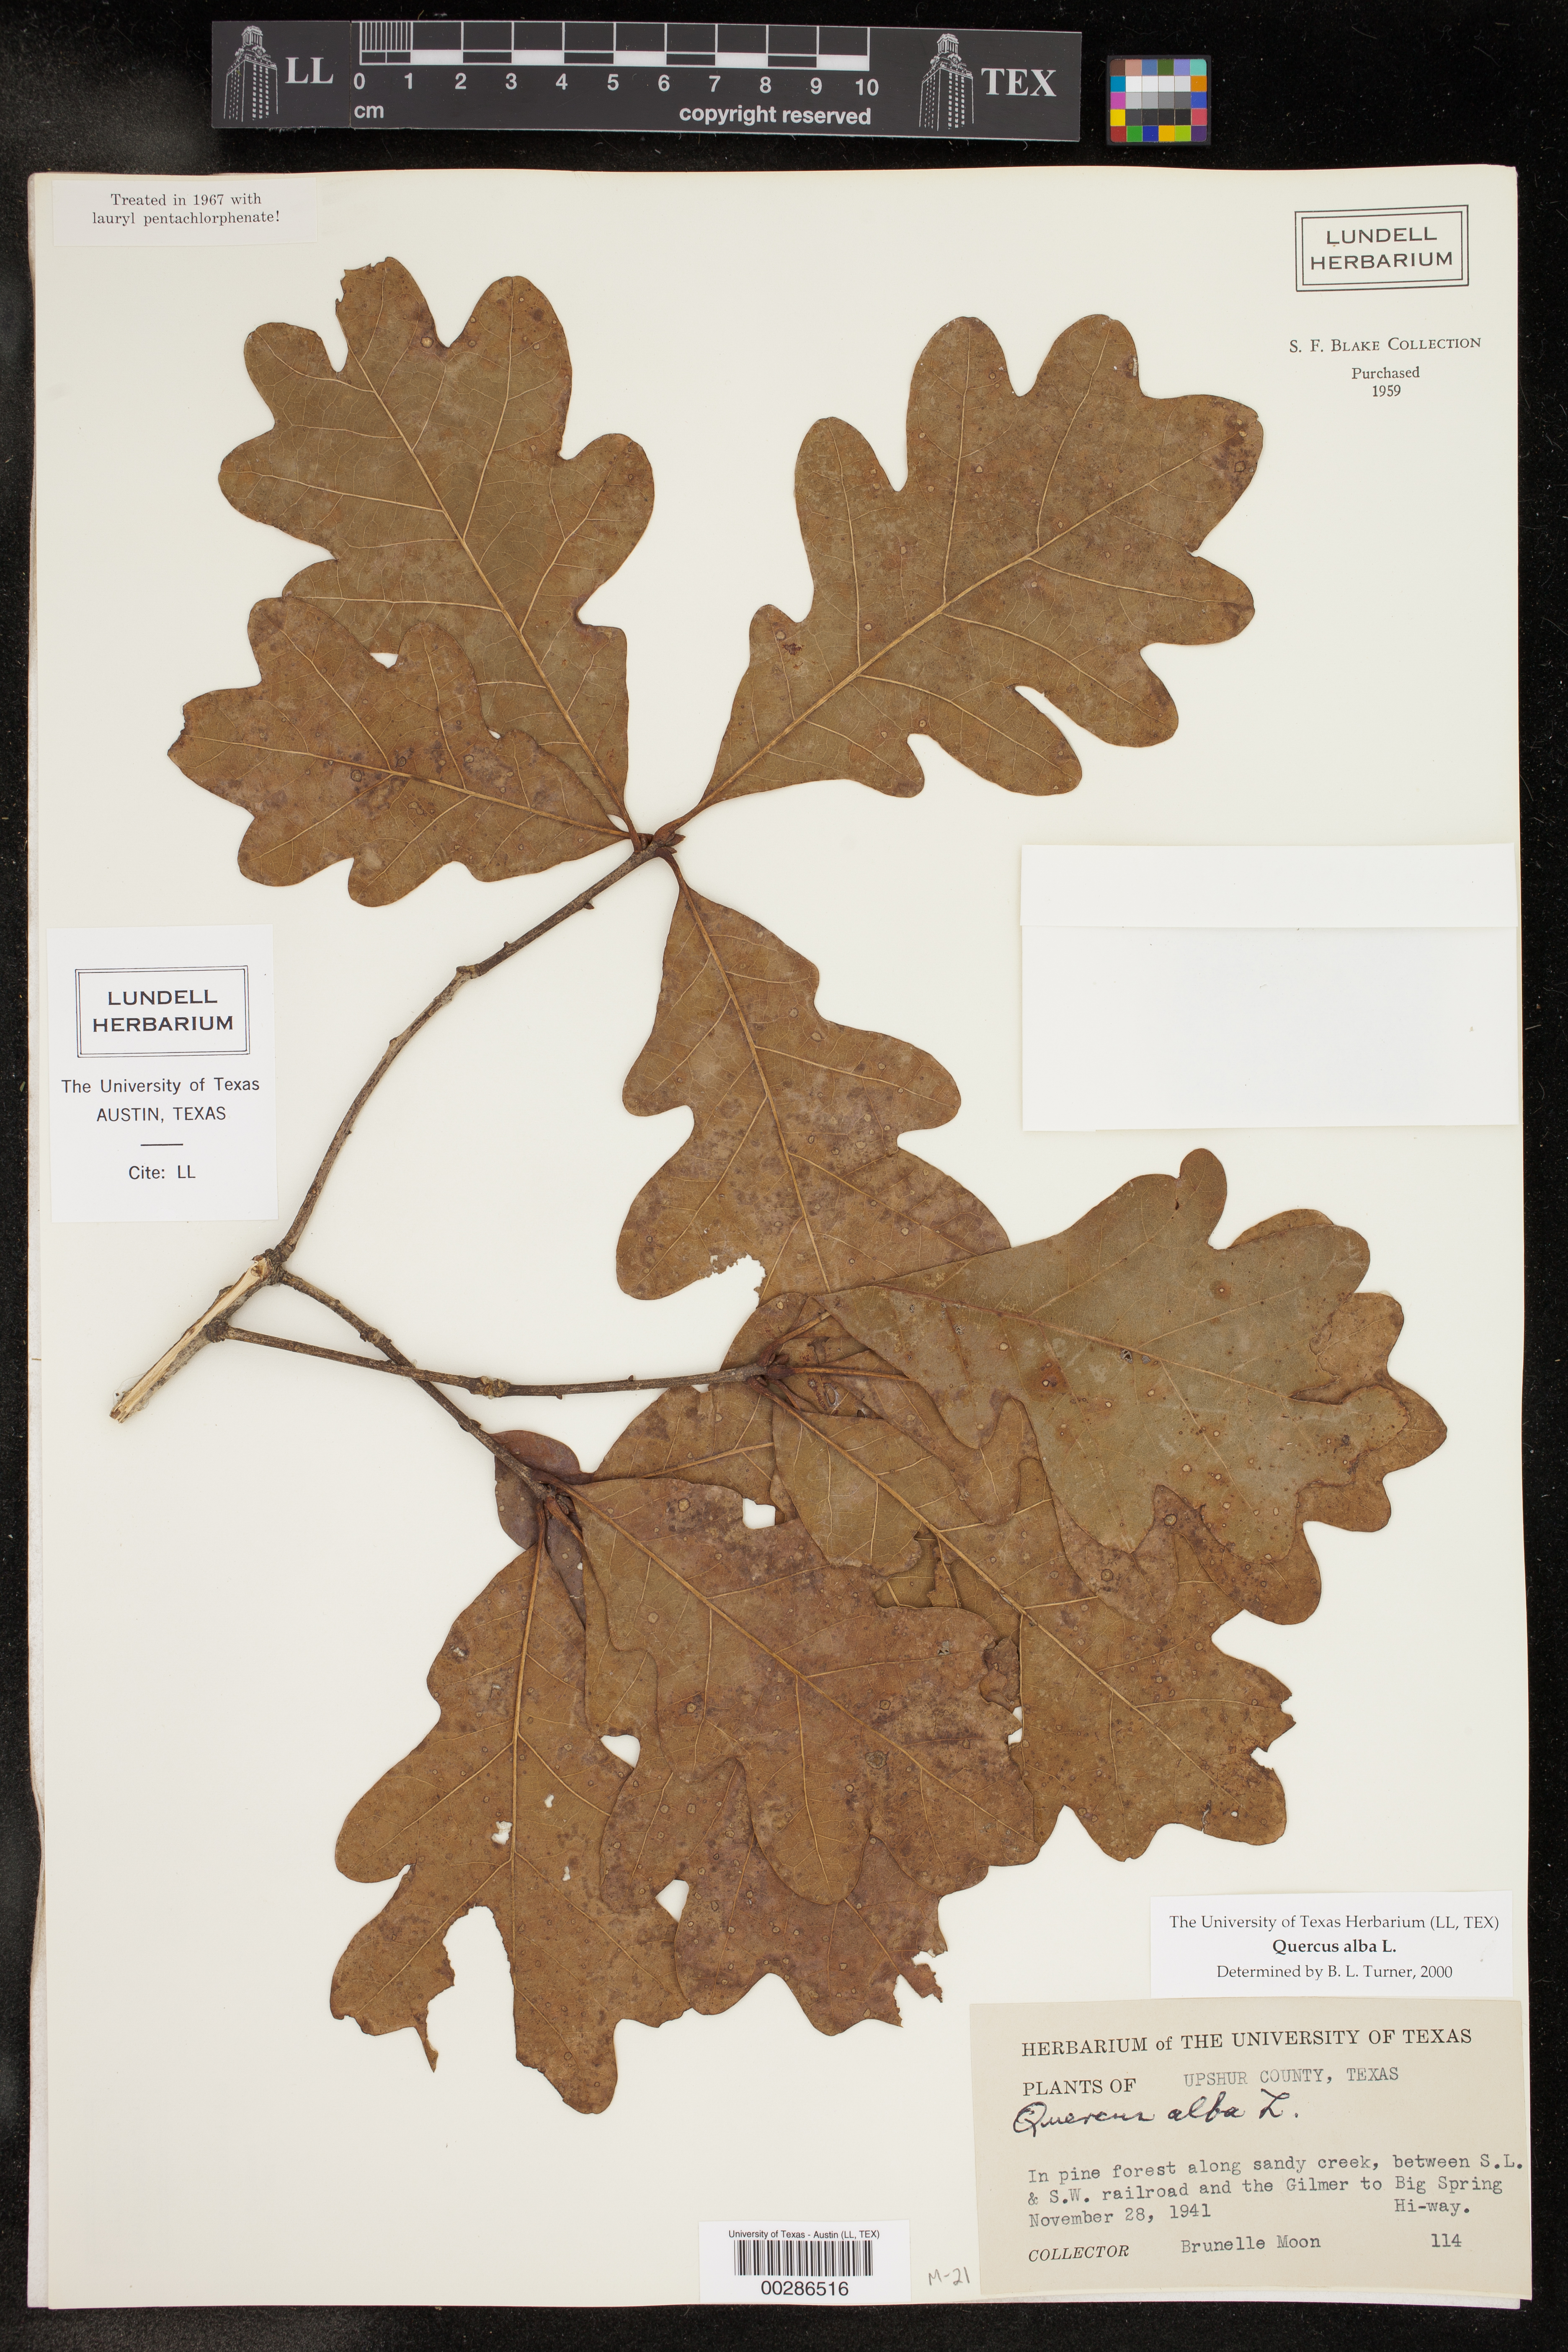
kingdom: Plantae
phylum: Tracheophyta
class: Magnoliopsida
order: Fagales
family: Fagaceae
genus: Quercus
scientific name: Quercus alba
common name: White oak
